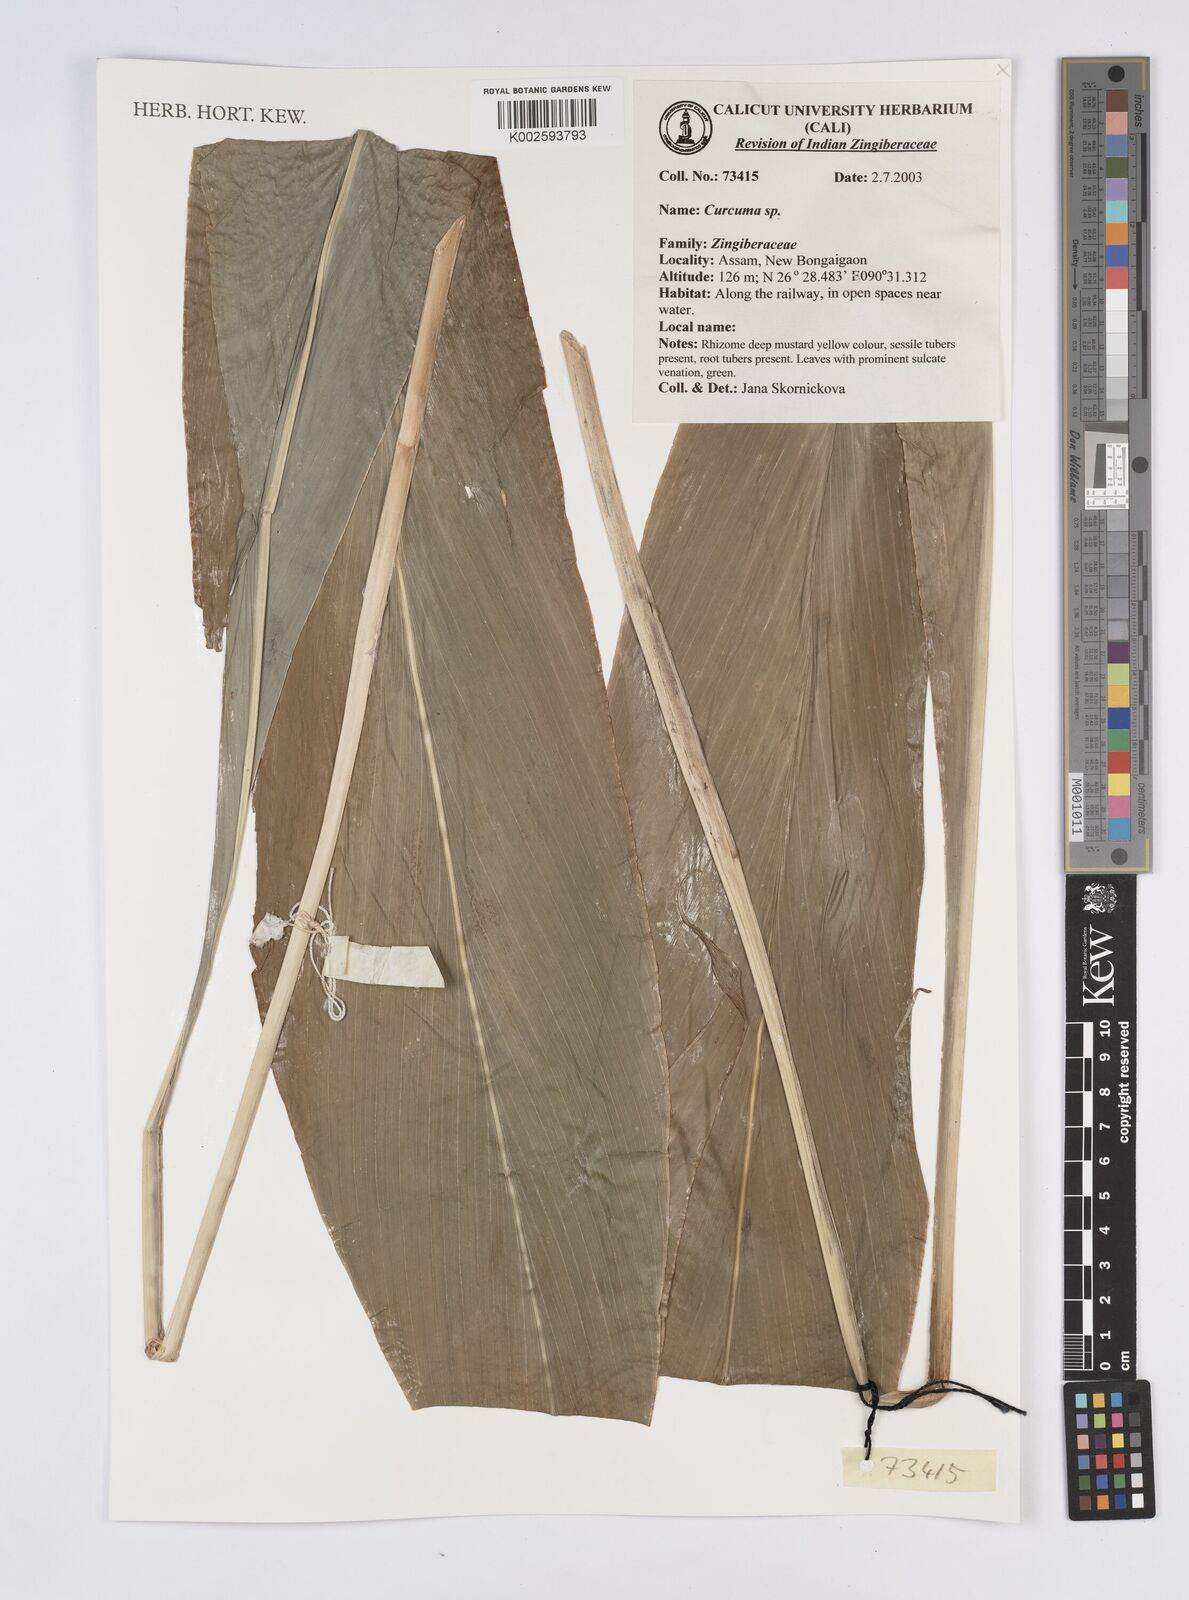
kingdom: Plantae
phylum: Tracheophyta
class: Liliopsida
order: Zingiberales
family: Zingiberaceae
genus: Curcuma
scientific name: Curcuma
